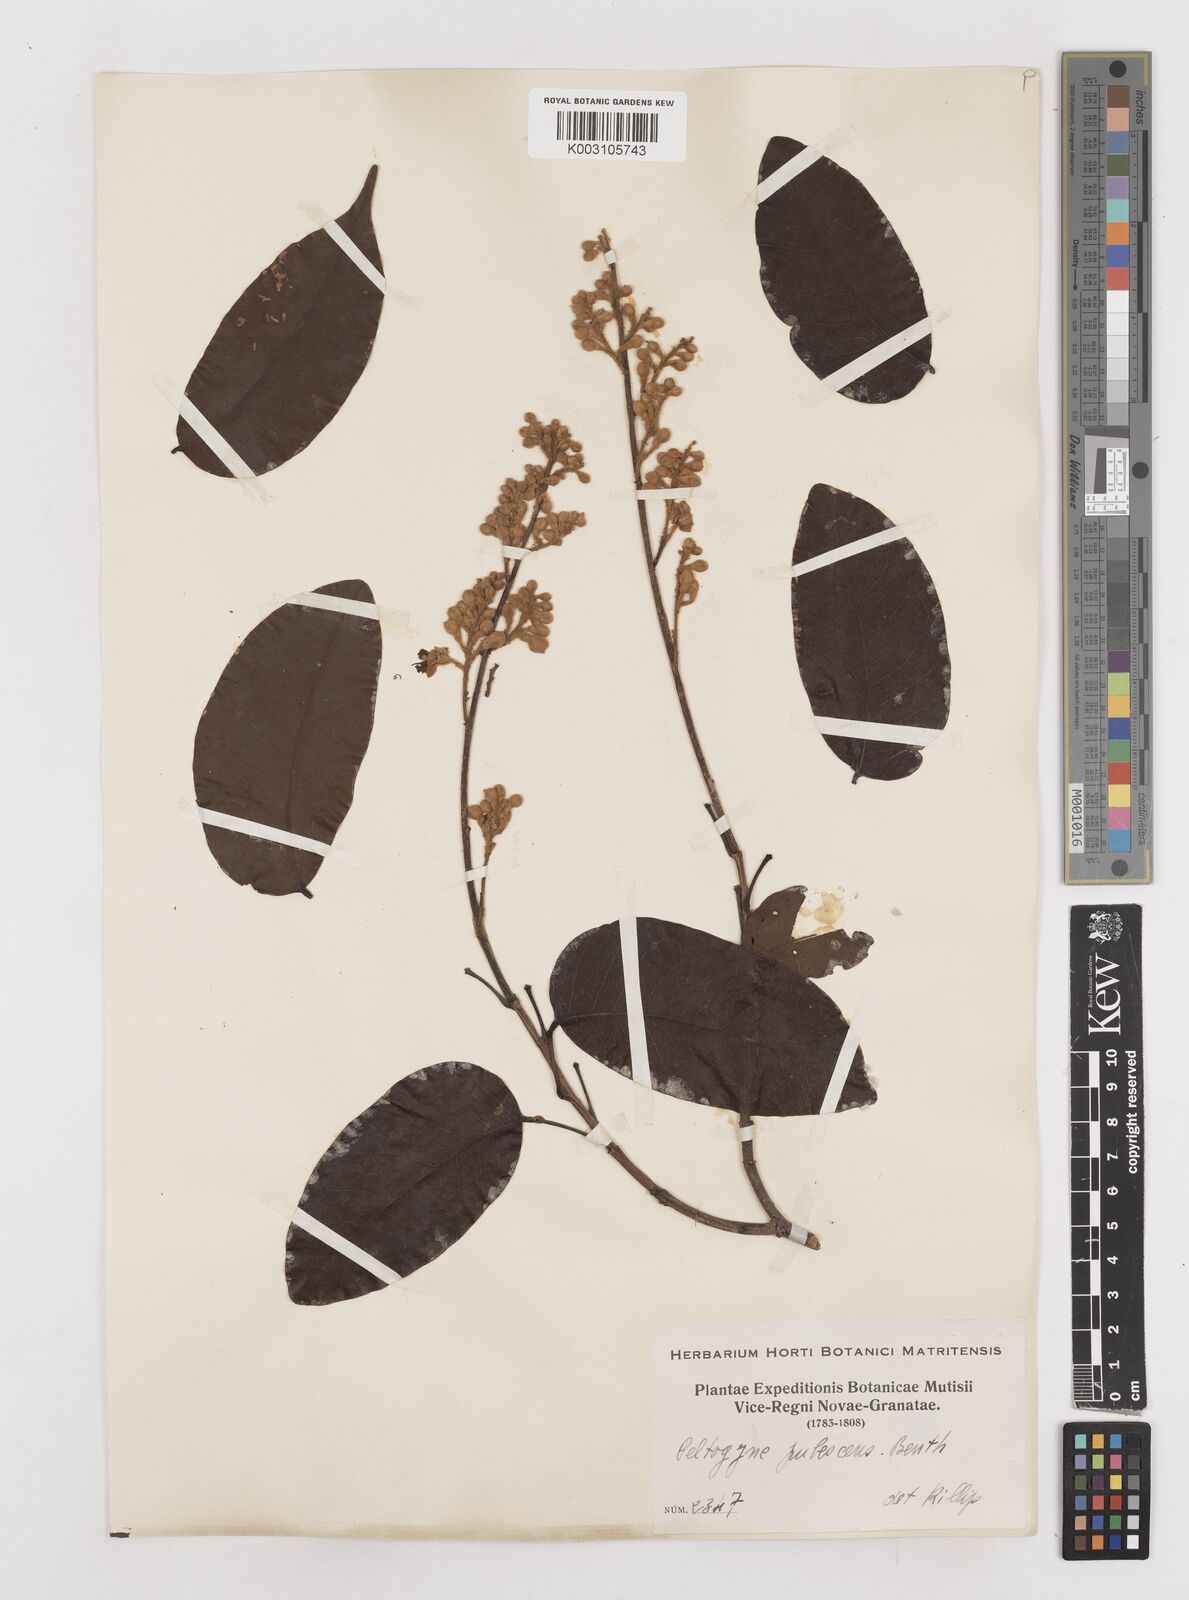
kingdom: Plantae
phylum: Tracheophyta
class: Magnoliopsida
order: Fabales
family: Fabaceae
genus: Peltogyne
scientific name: Peltogyne paniculata
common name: Purpleheart
